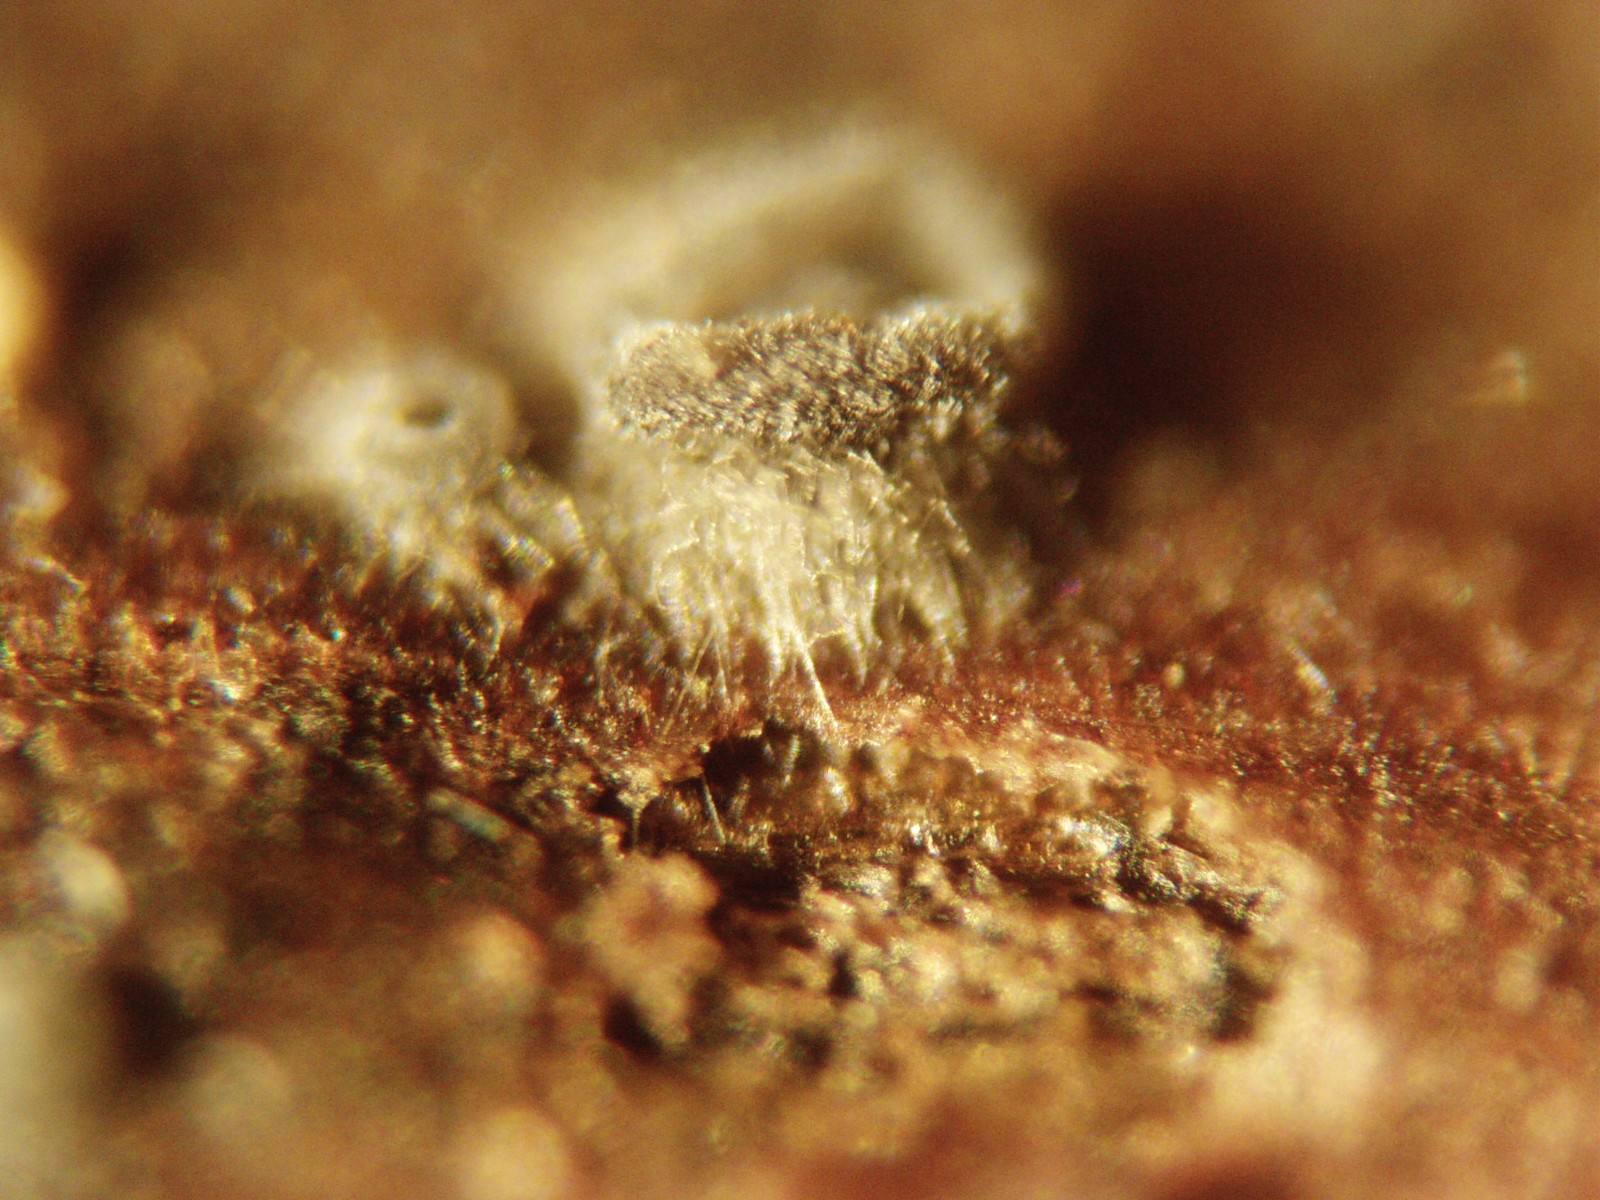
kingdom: Fungi
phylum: Ascomycota
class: Leotiomycetes
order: Helotiales
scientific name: Helotiales
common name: stilkskiveordenen
